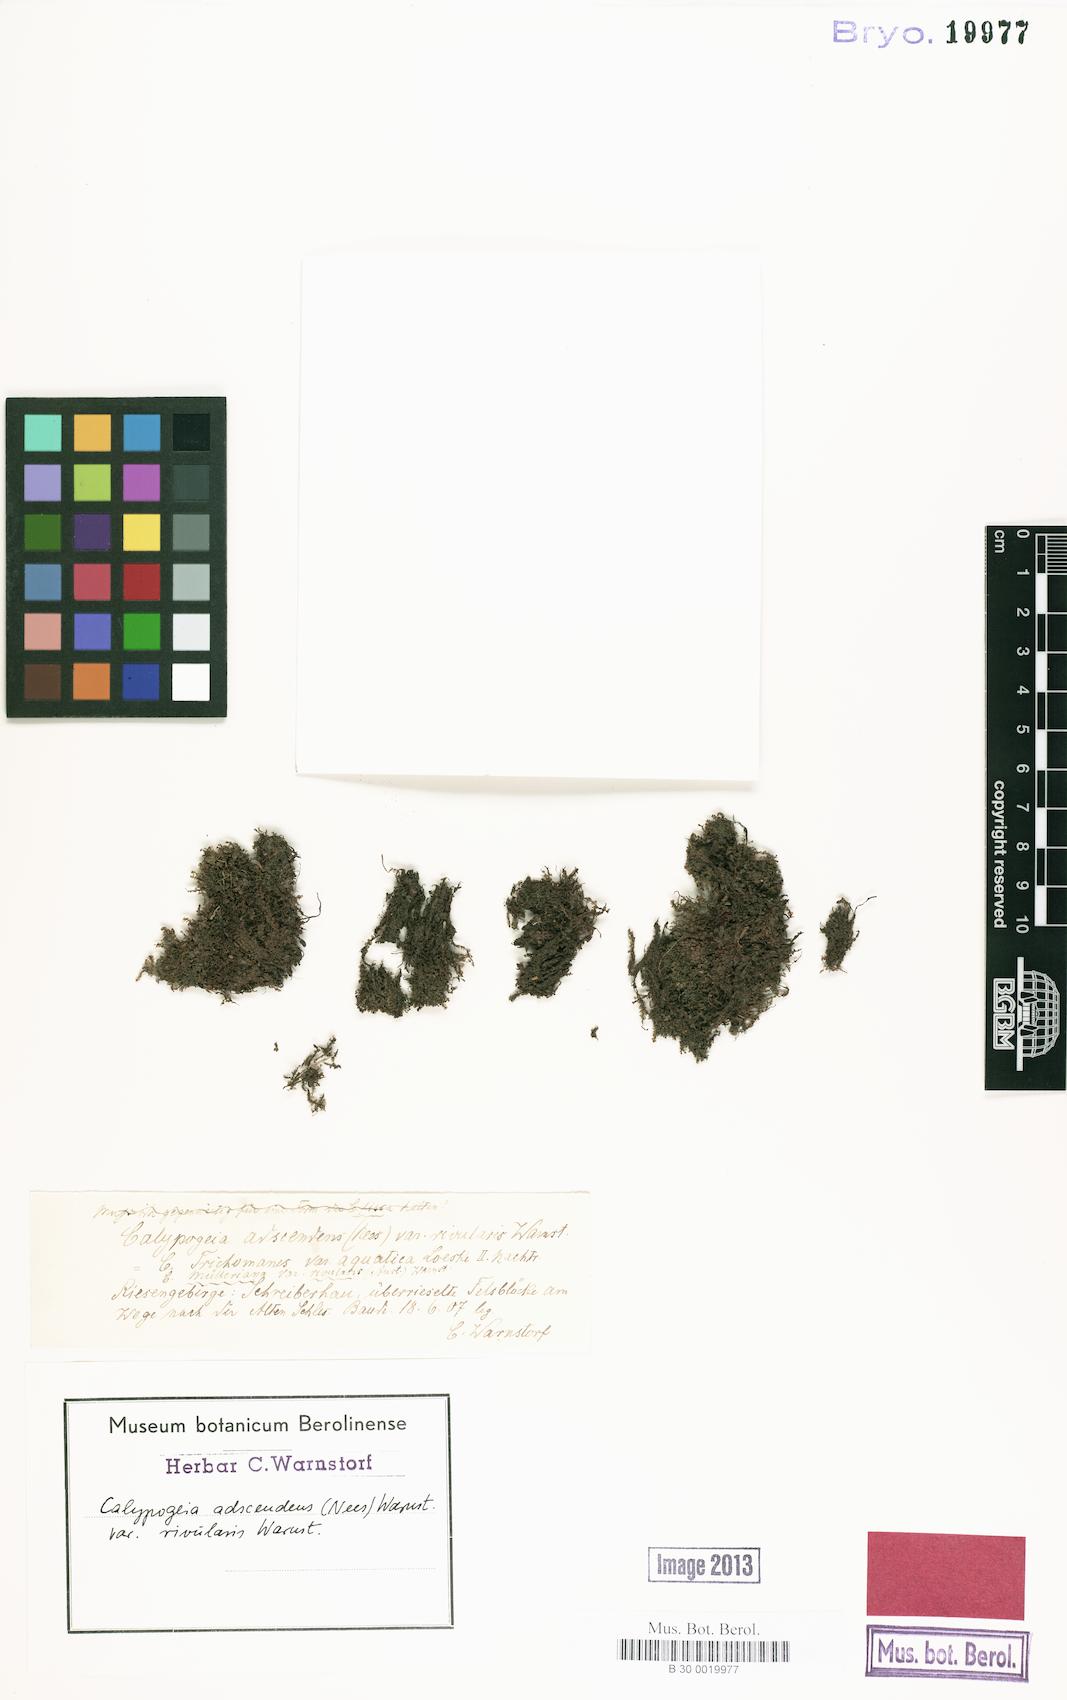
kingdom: Plantae
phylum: Marchantiophyta
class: Jungermanniopsida
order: Jungermanniales
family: Calypogeiaceae
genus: Calypogeia
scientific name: Calypogeia muelleriana
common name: Mueller s pouchwort
